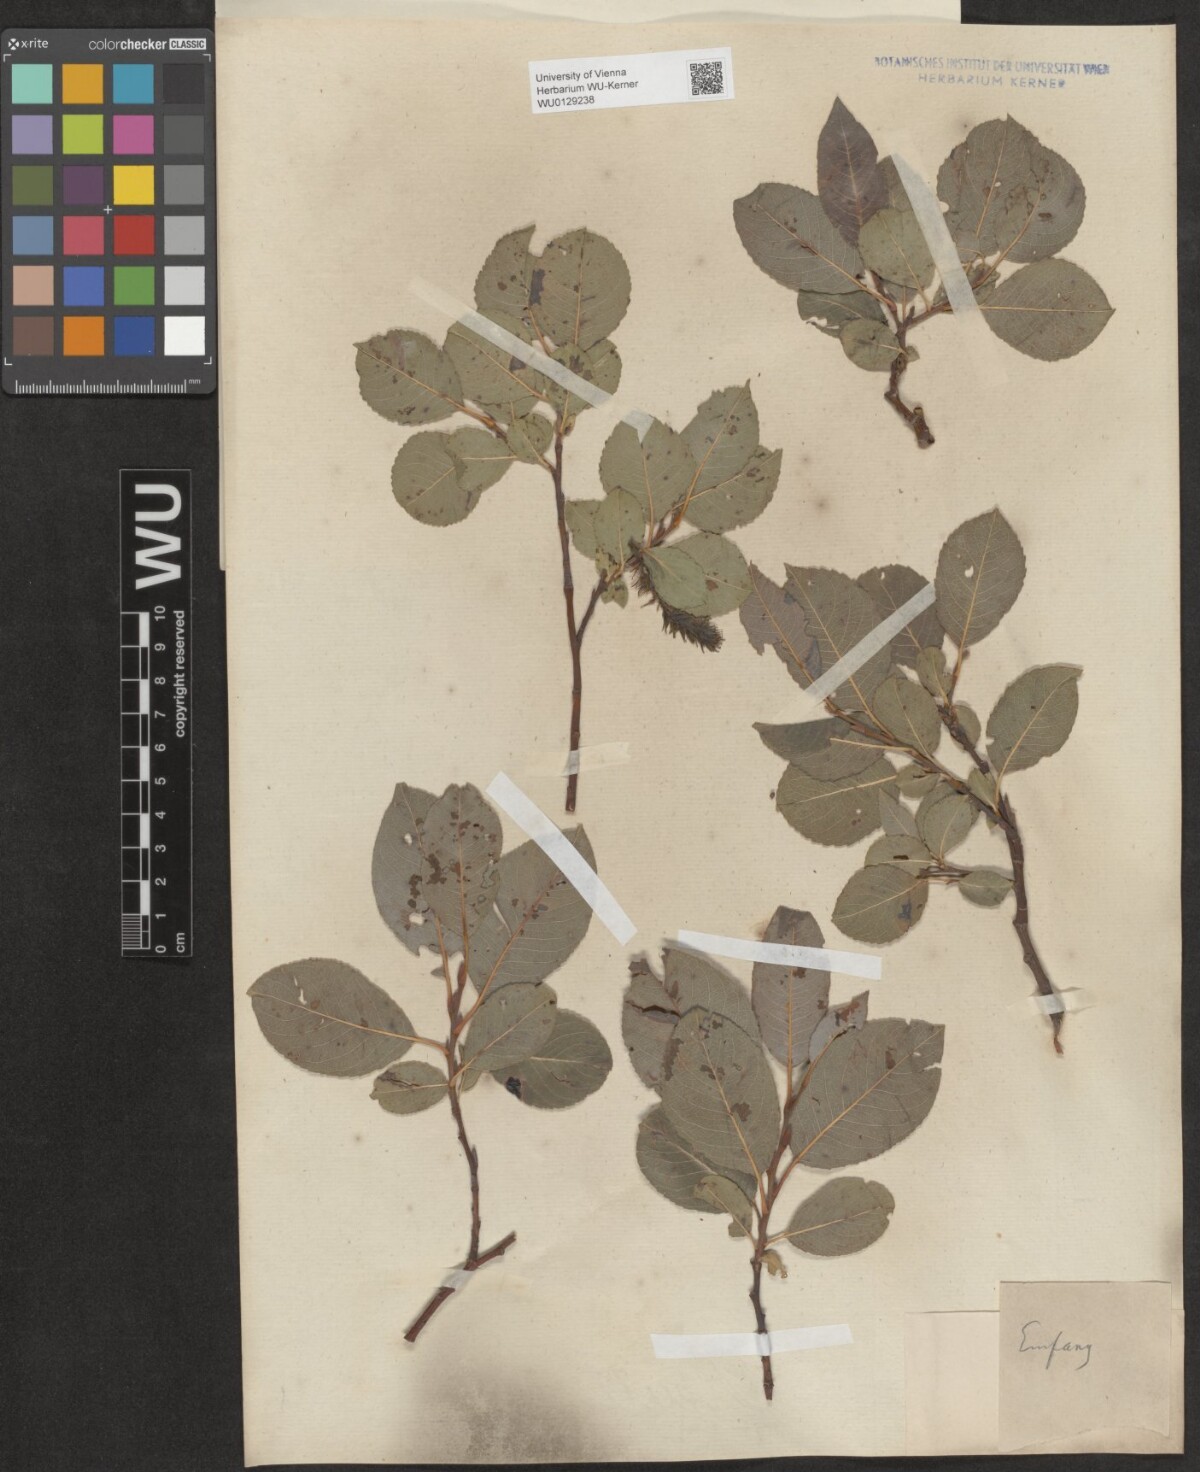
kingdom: Plantae
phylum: Tracheophyta
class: Magnoliopsida
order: Malpighiales
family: Salicaceae
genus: Salix
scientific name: Salix glabra
